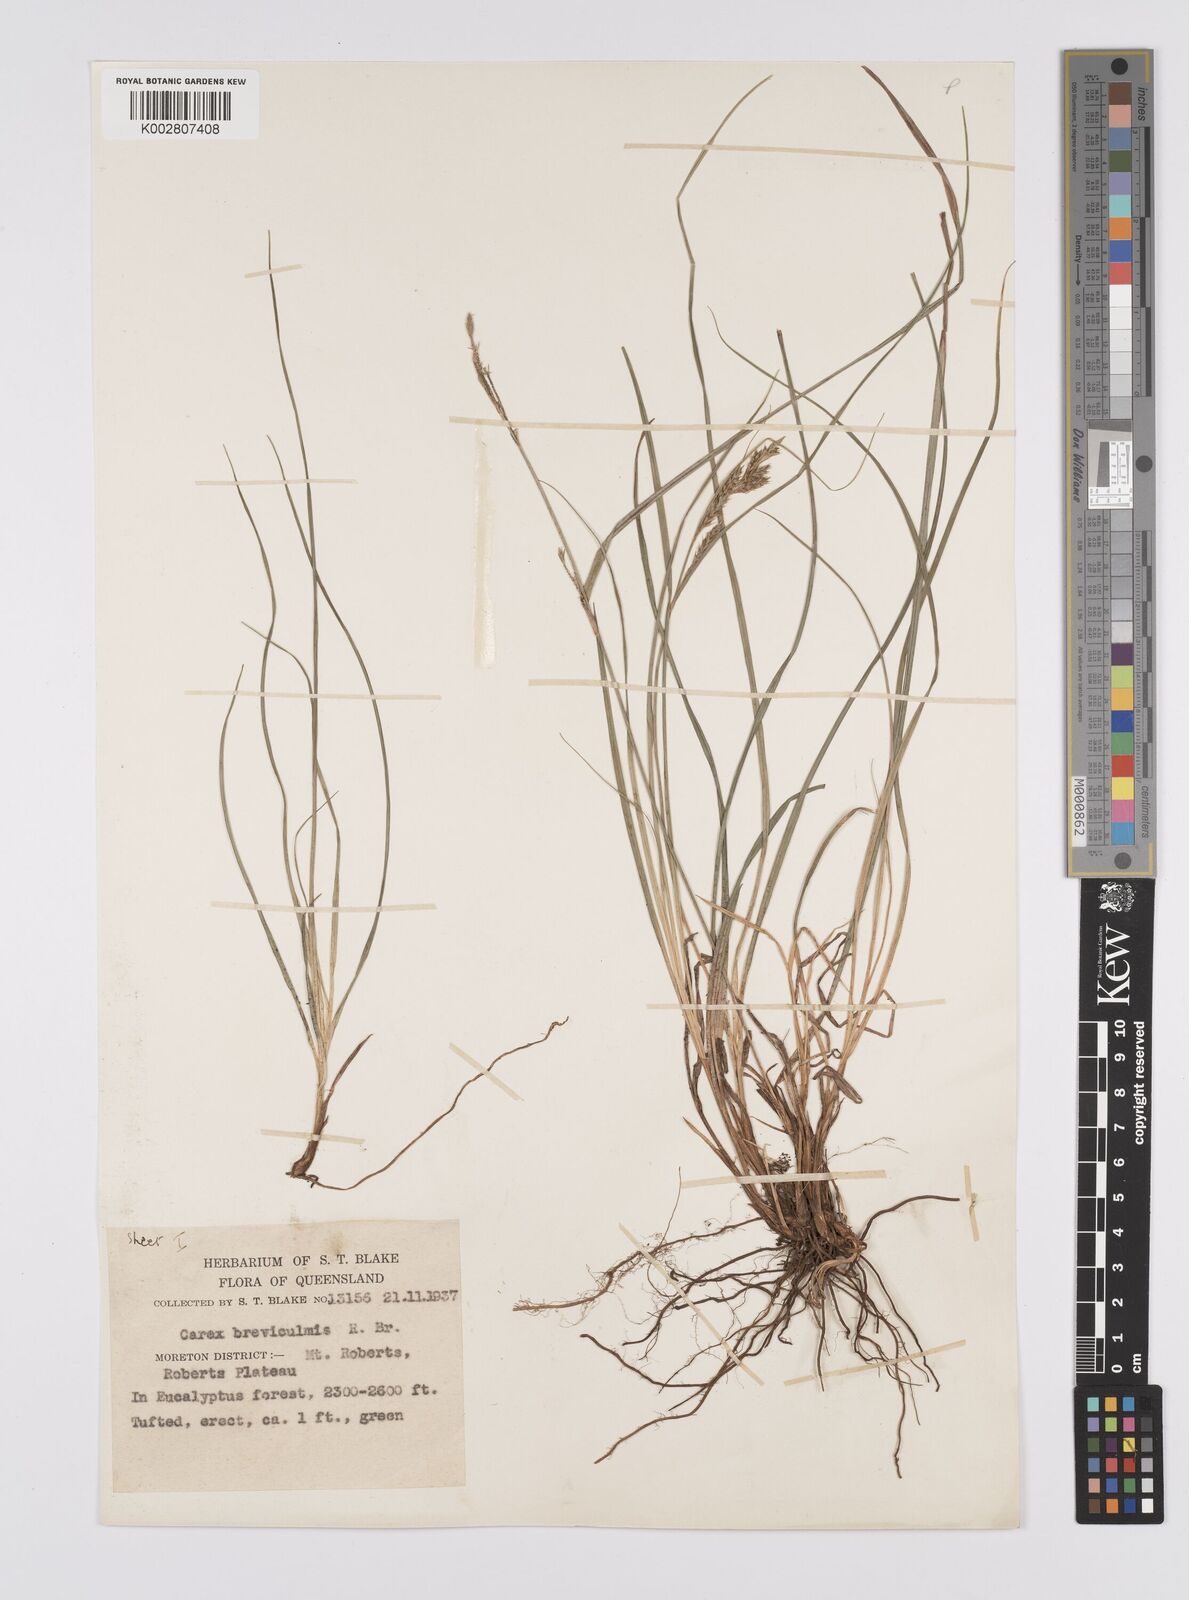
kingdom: Plantae
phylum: Tracheophyta
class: Liliopsida
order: Poales
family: Cyperaceae
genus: Carex
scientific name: Carex breviculmis
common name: Asian shortstem sedge
